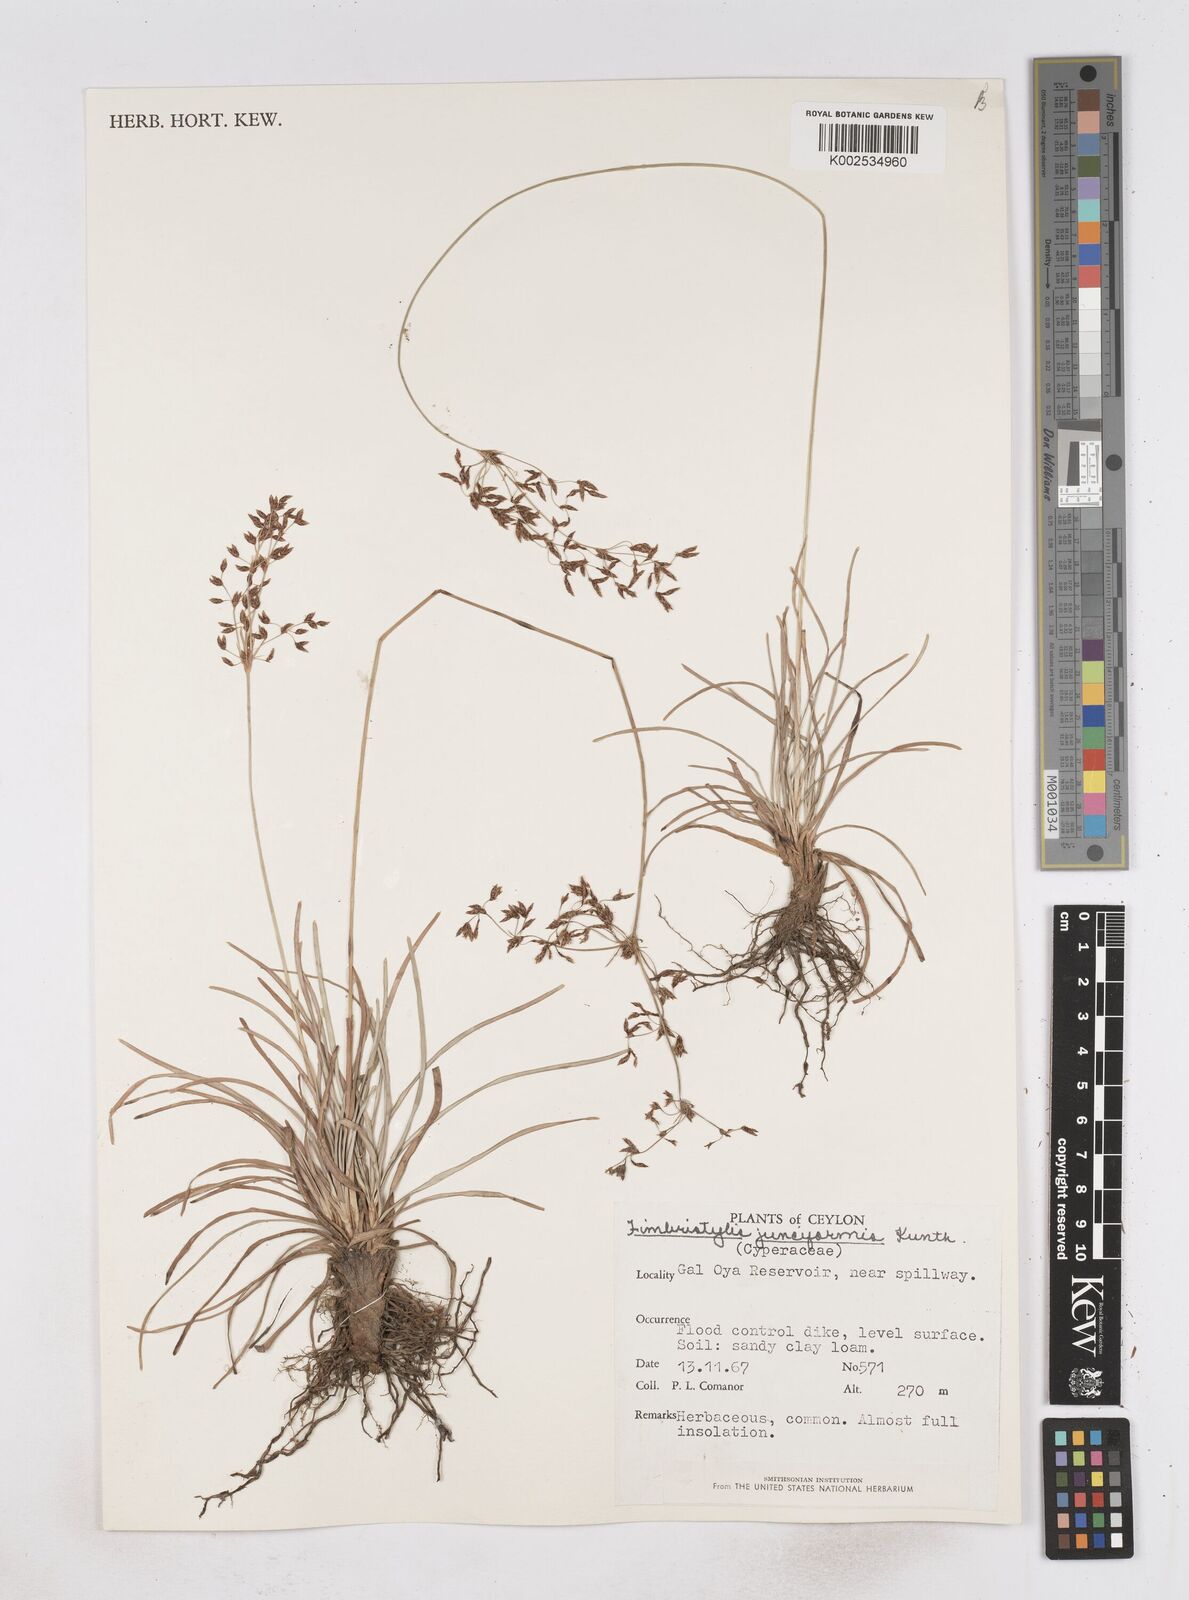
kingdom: Plantae
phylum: Tracheophyta
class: Liliopsida
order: Poales
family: Cyperaceae
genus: Fimbristylis
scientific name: Fimbristylis falcata
